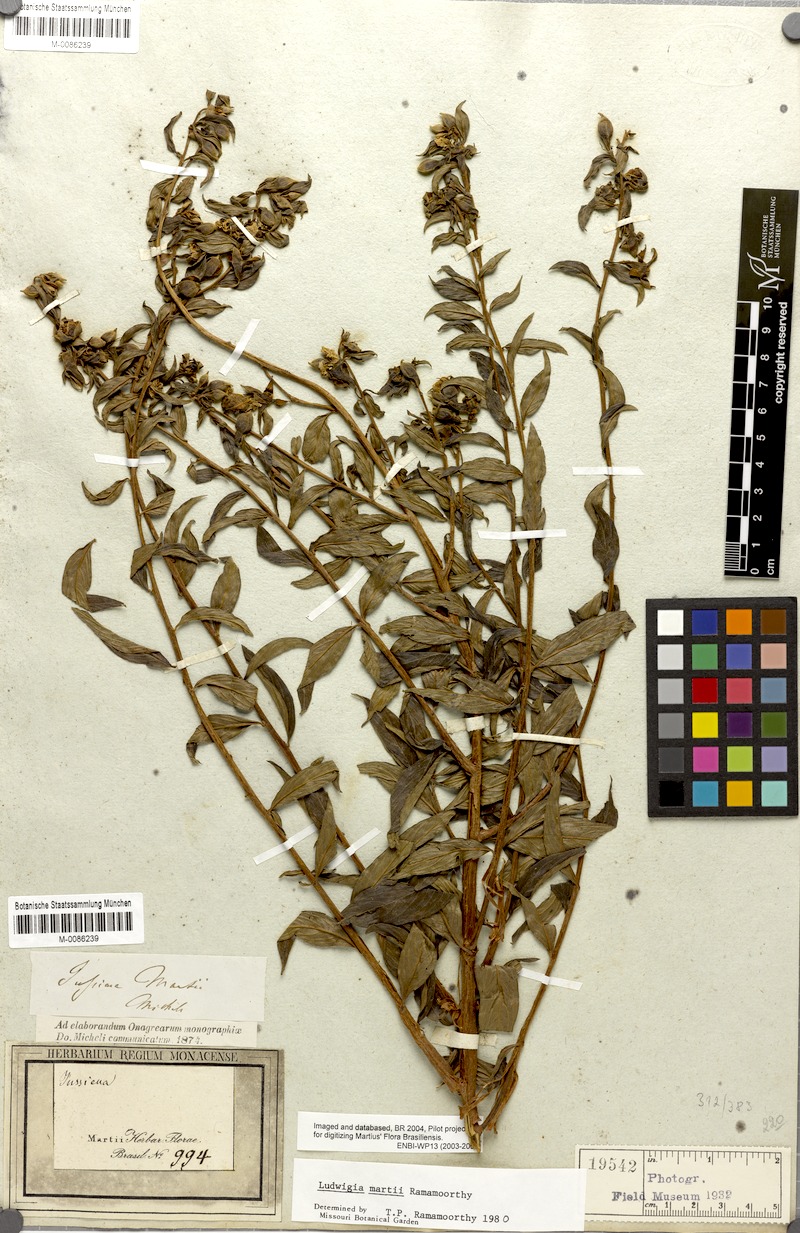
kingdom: Plantae
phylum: Tracheophyta
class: Magnoliopsida
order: Myrtales
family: Onagraceae
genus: Ludwigia
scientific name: Ludwigia martii
